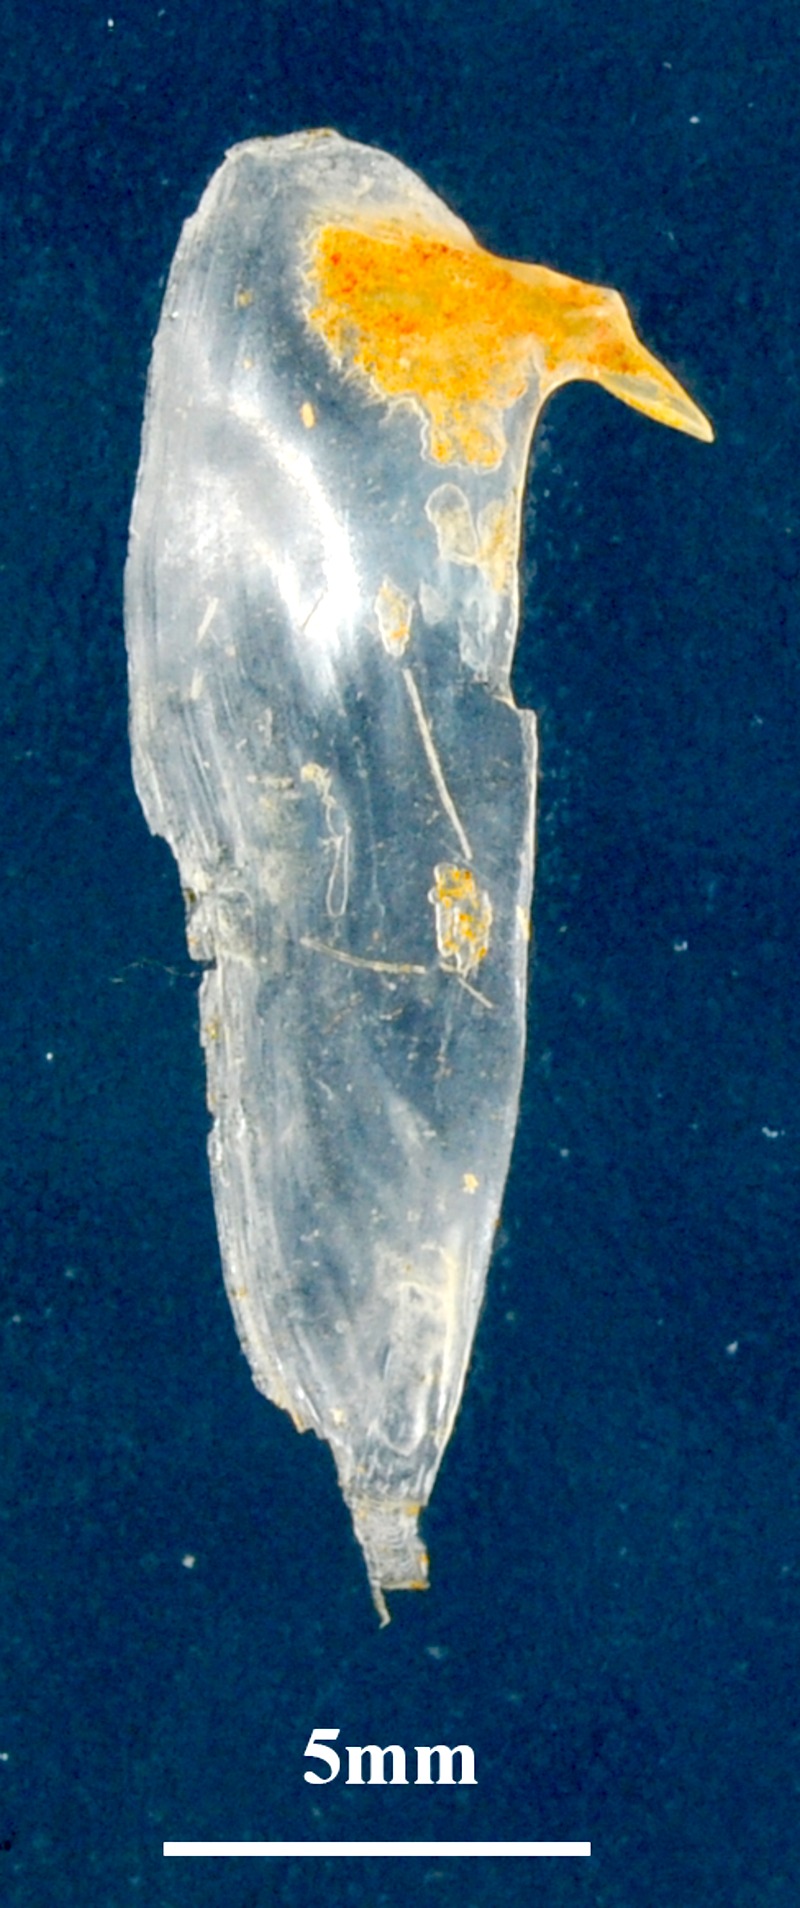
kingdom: Animalia
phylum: Chordata
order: Perciformes
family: Sparidae
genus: Diplodus
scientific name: Diplodus puntazzo
